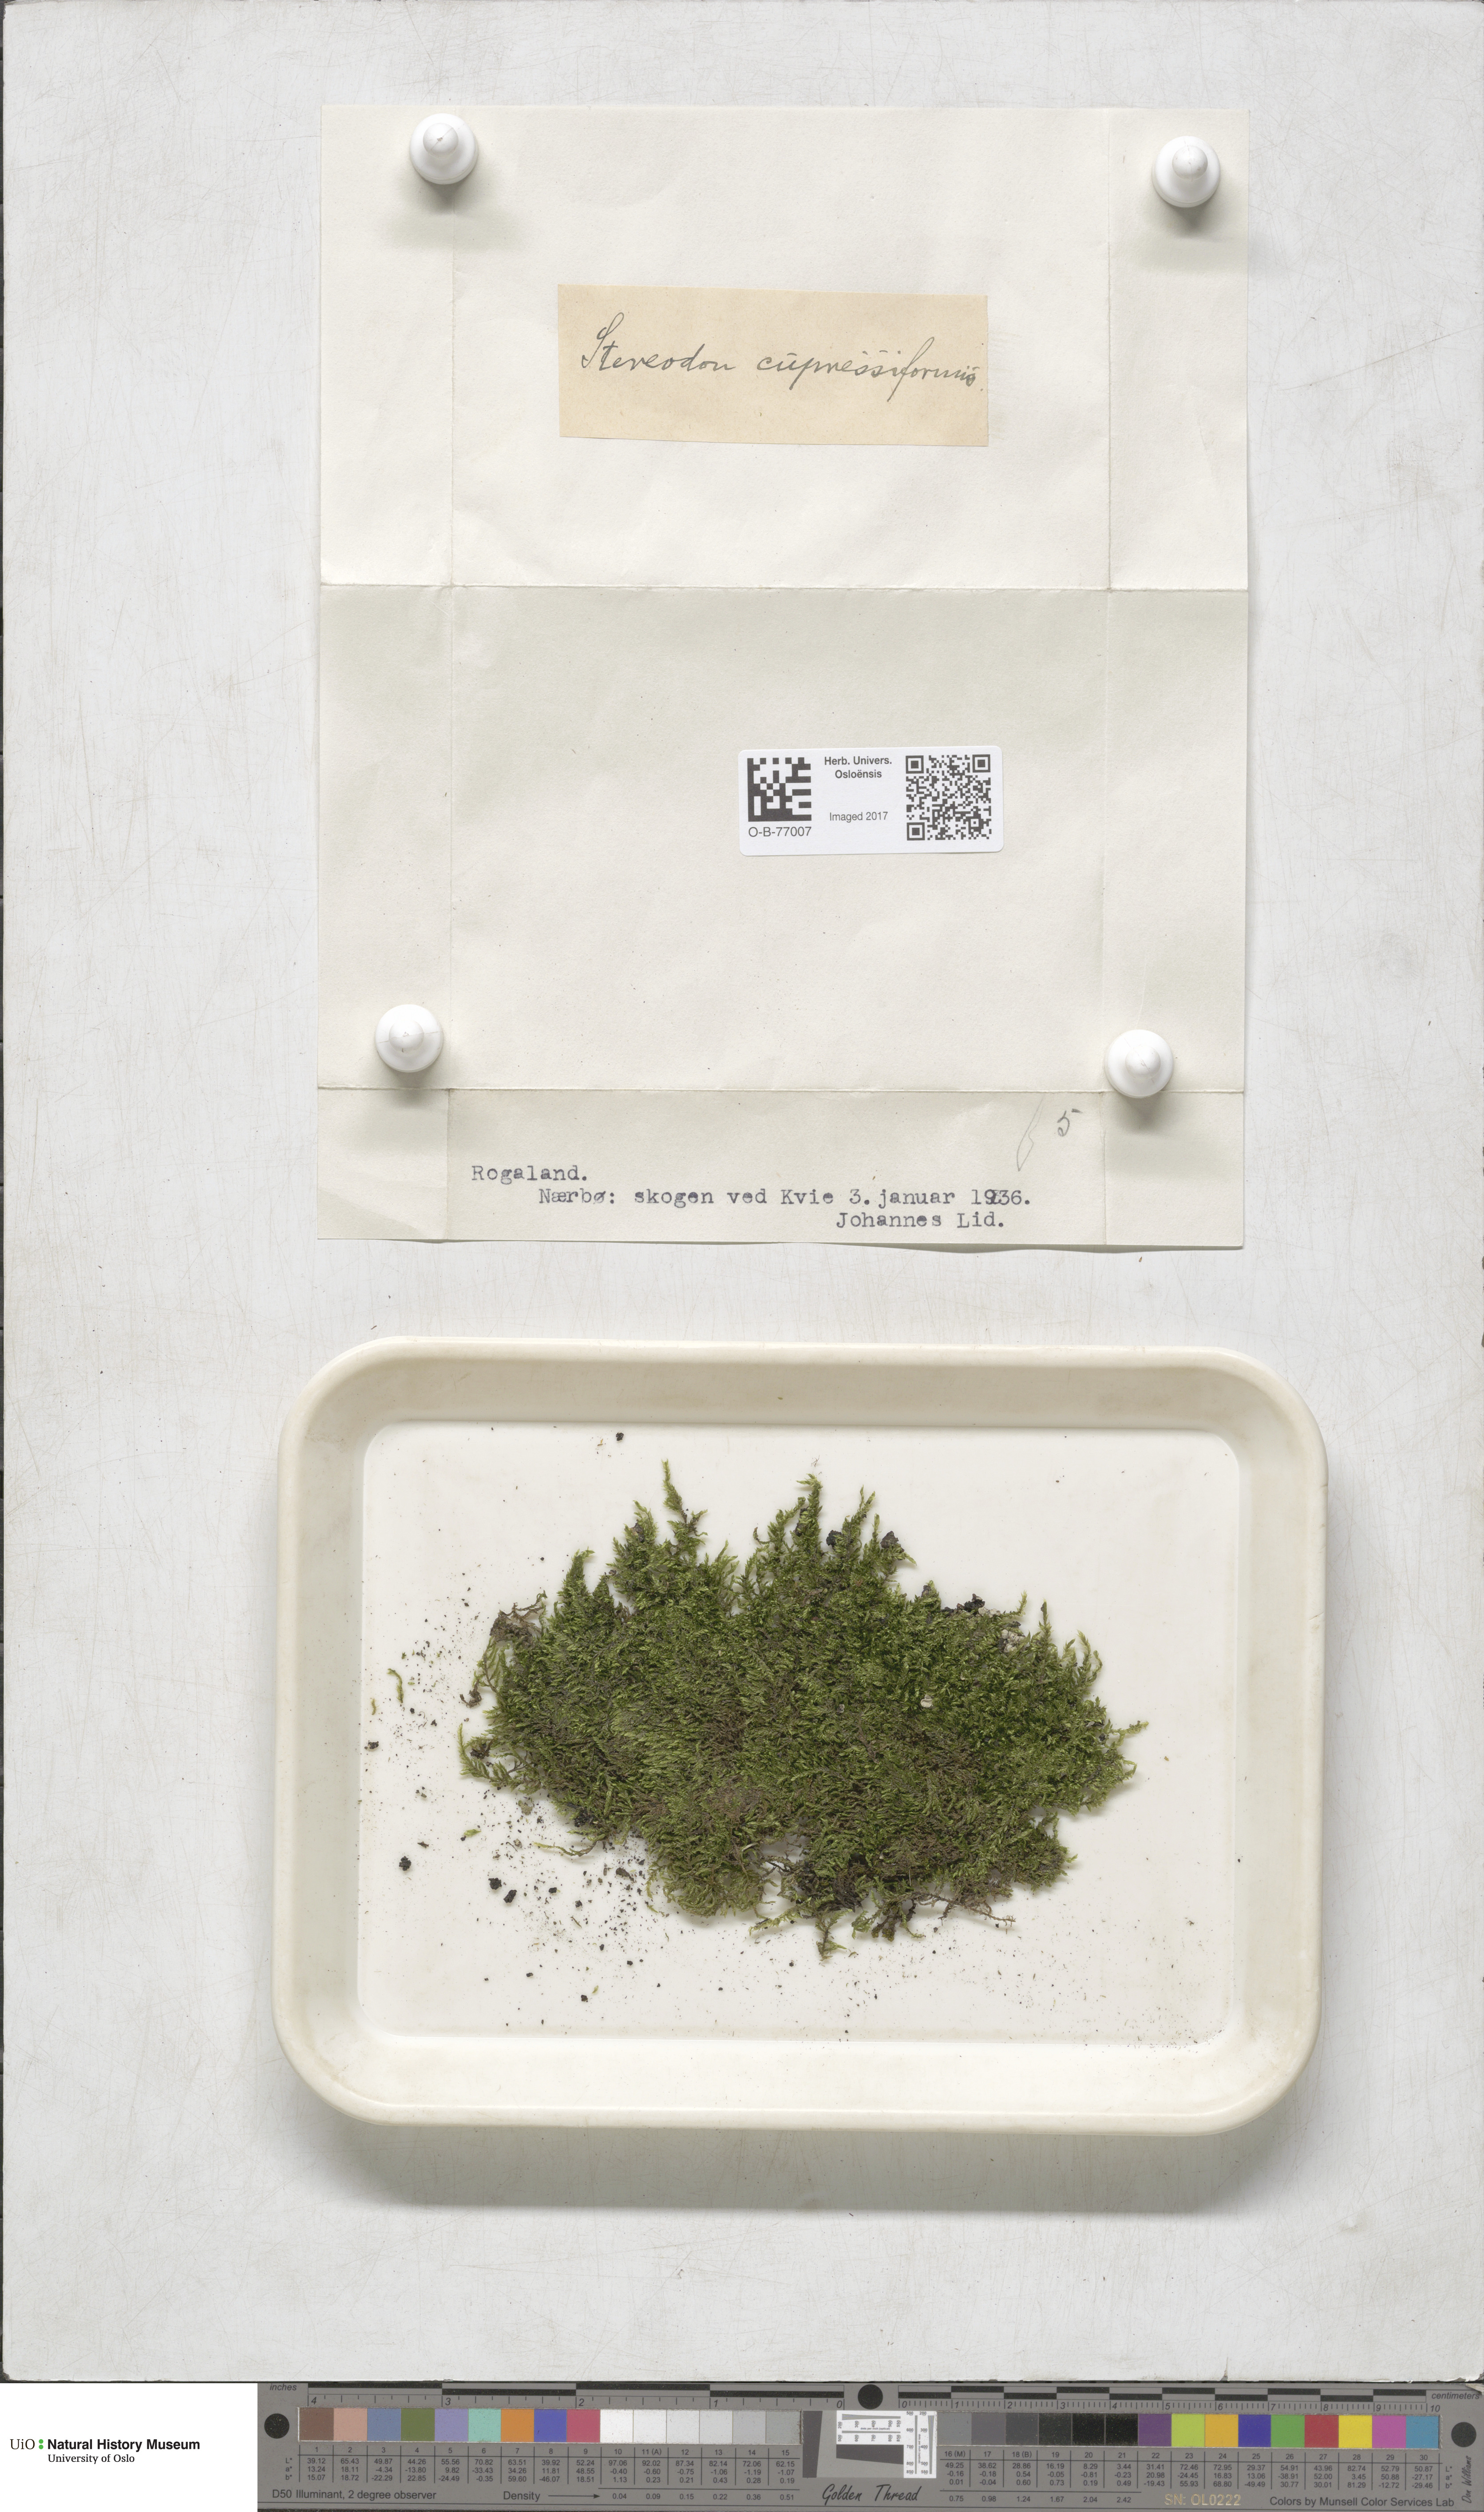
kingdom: Plantae
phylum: Bryophyta
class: Bryopsida
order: Hypnales
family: Hypnaceae
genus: Hypnum
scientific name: Hypnum cupressiforme
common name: Cypress-leaved plait-moss
